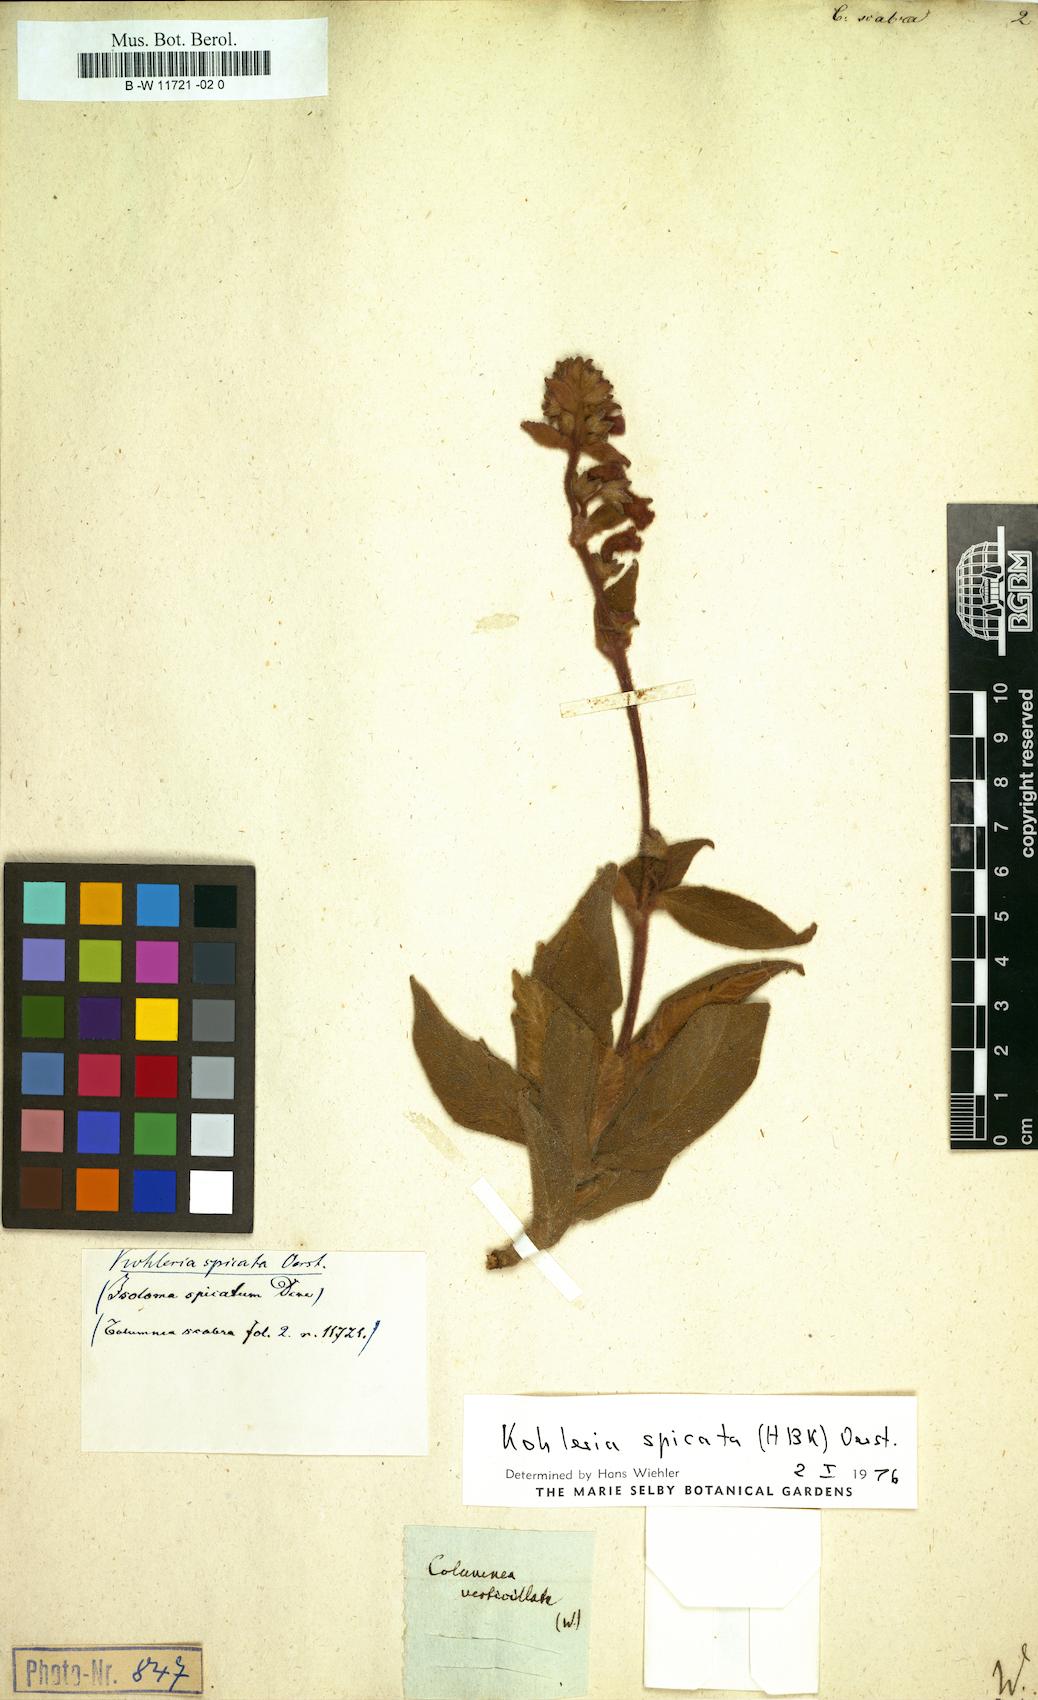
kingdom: Plantae
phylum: Tracheophyta
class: Magnoliopsida
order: Lamiales
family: Gesneriaceae
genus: Columnea
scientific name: Columnea scabrosa
